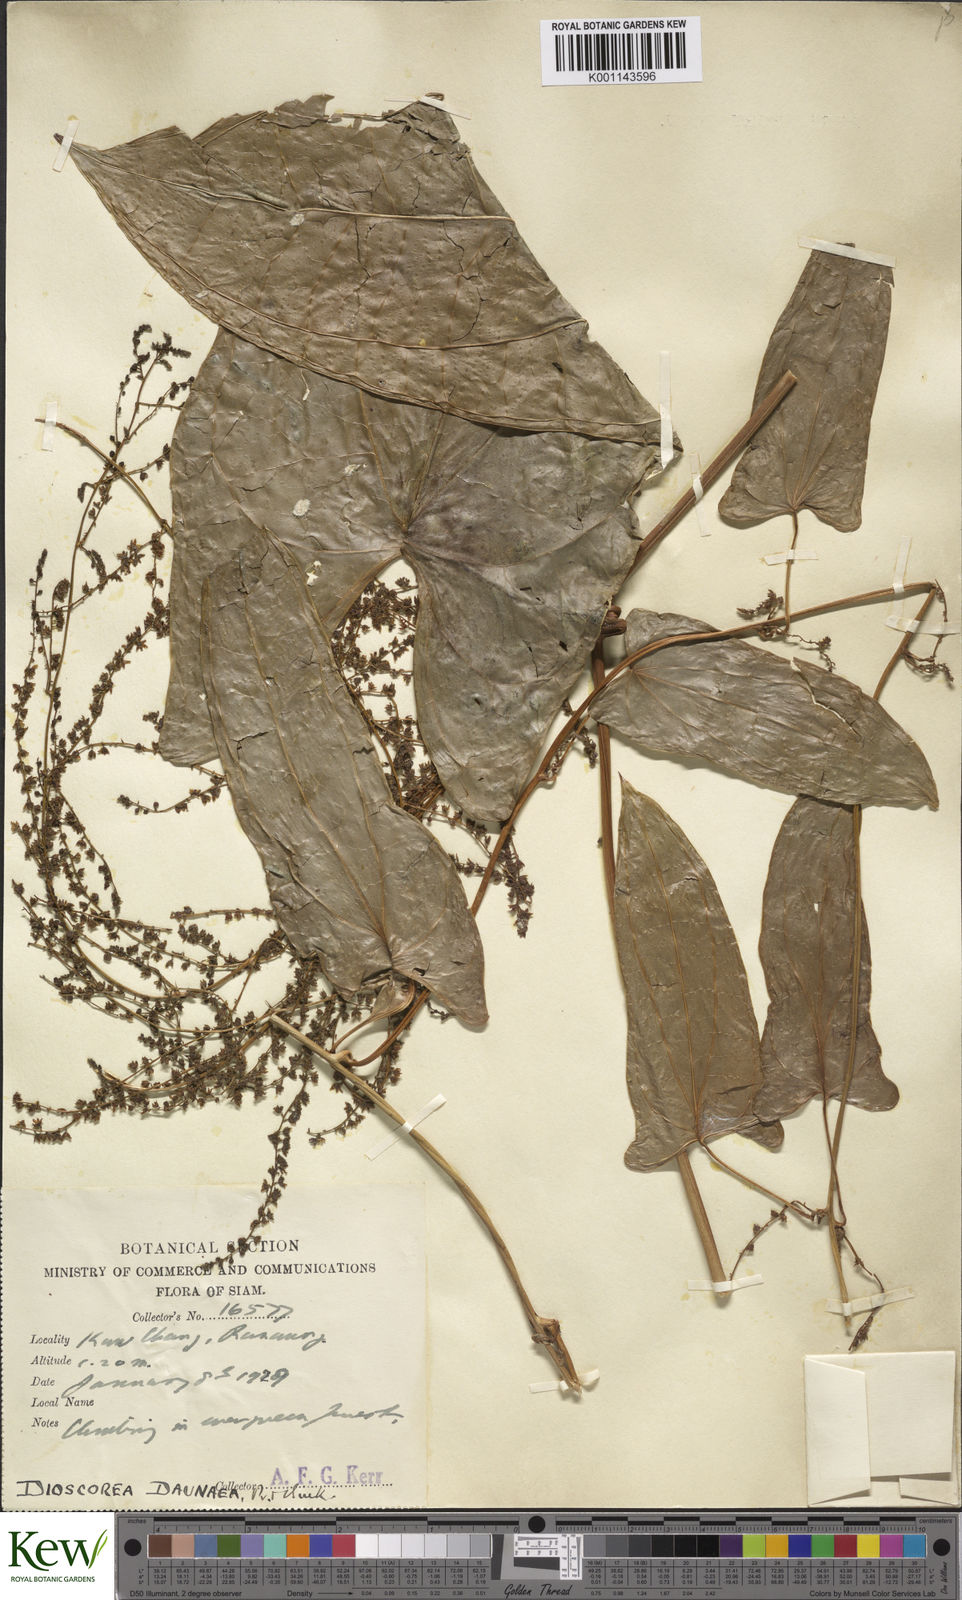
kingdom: Plantae
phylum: Tracheophyta
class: Liliopsida
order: Dioscoreales
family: Dioscoreaceae
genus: Dioscorea
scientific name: Dioscorea daunea
